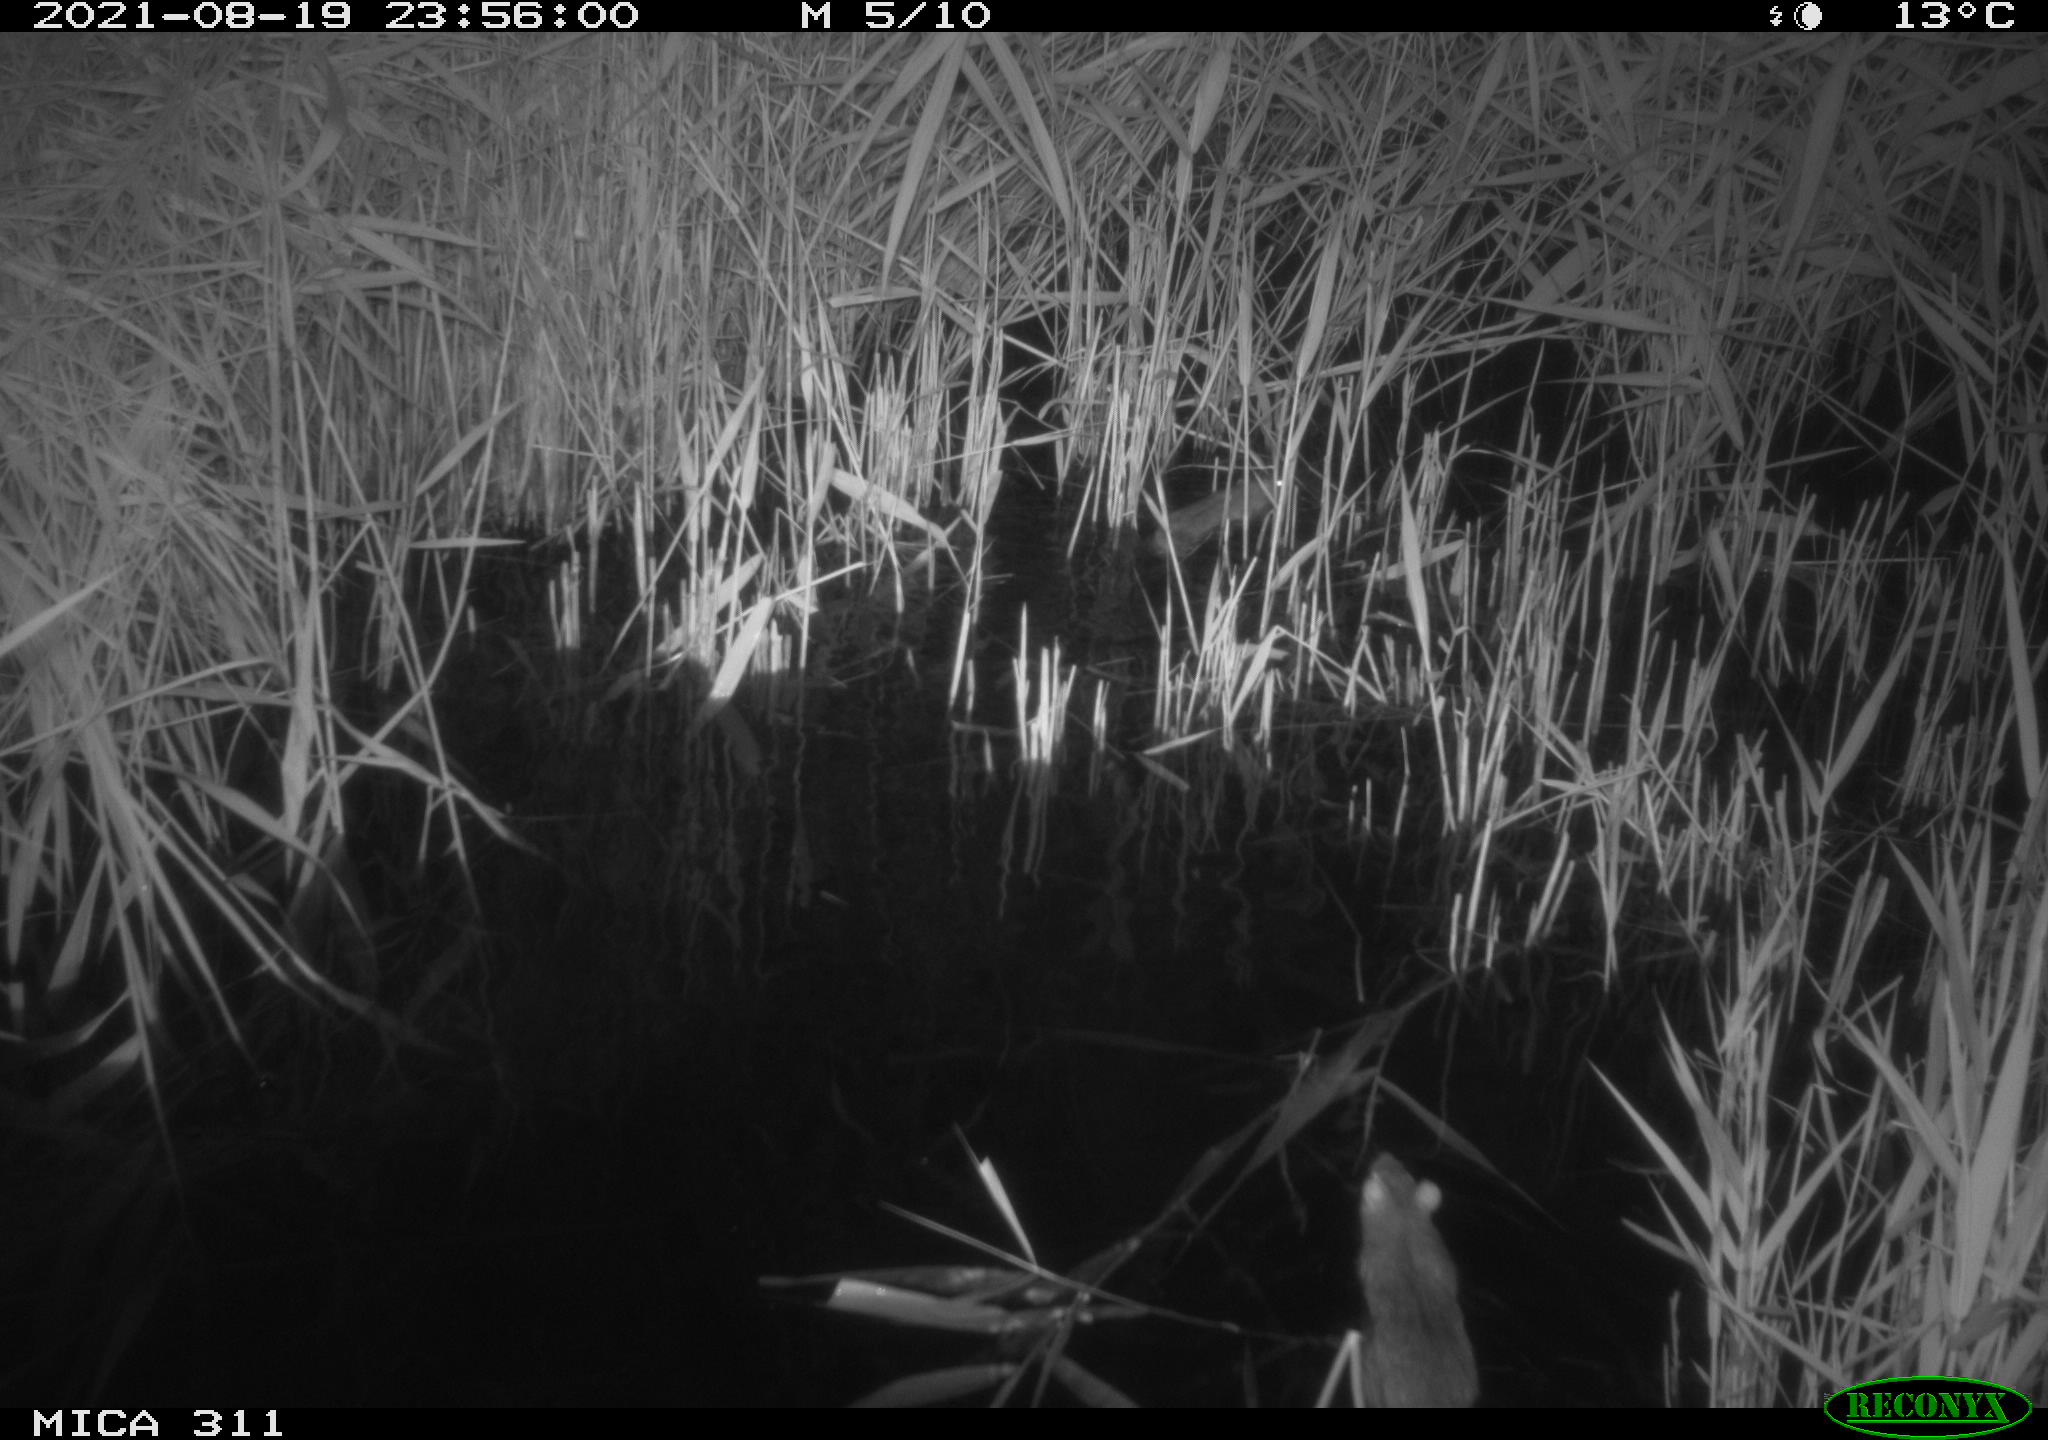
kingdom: Animalia
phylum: Chordata
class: Mammalia
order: Rodentia
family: Muridae
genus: Rattus
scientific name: Rattus norvegicus
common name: Brown rat
